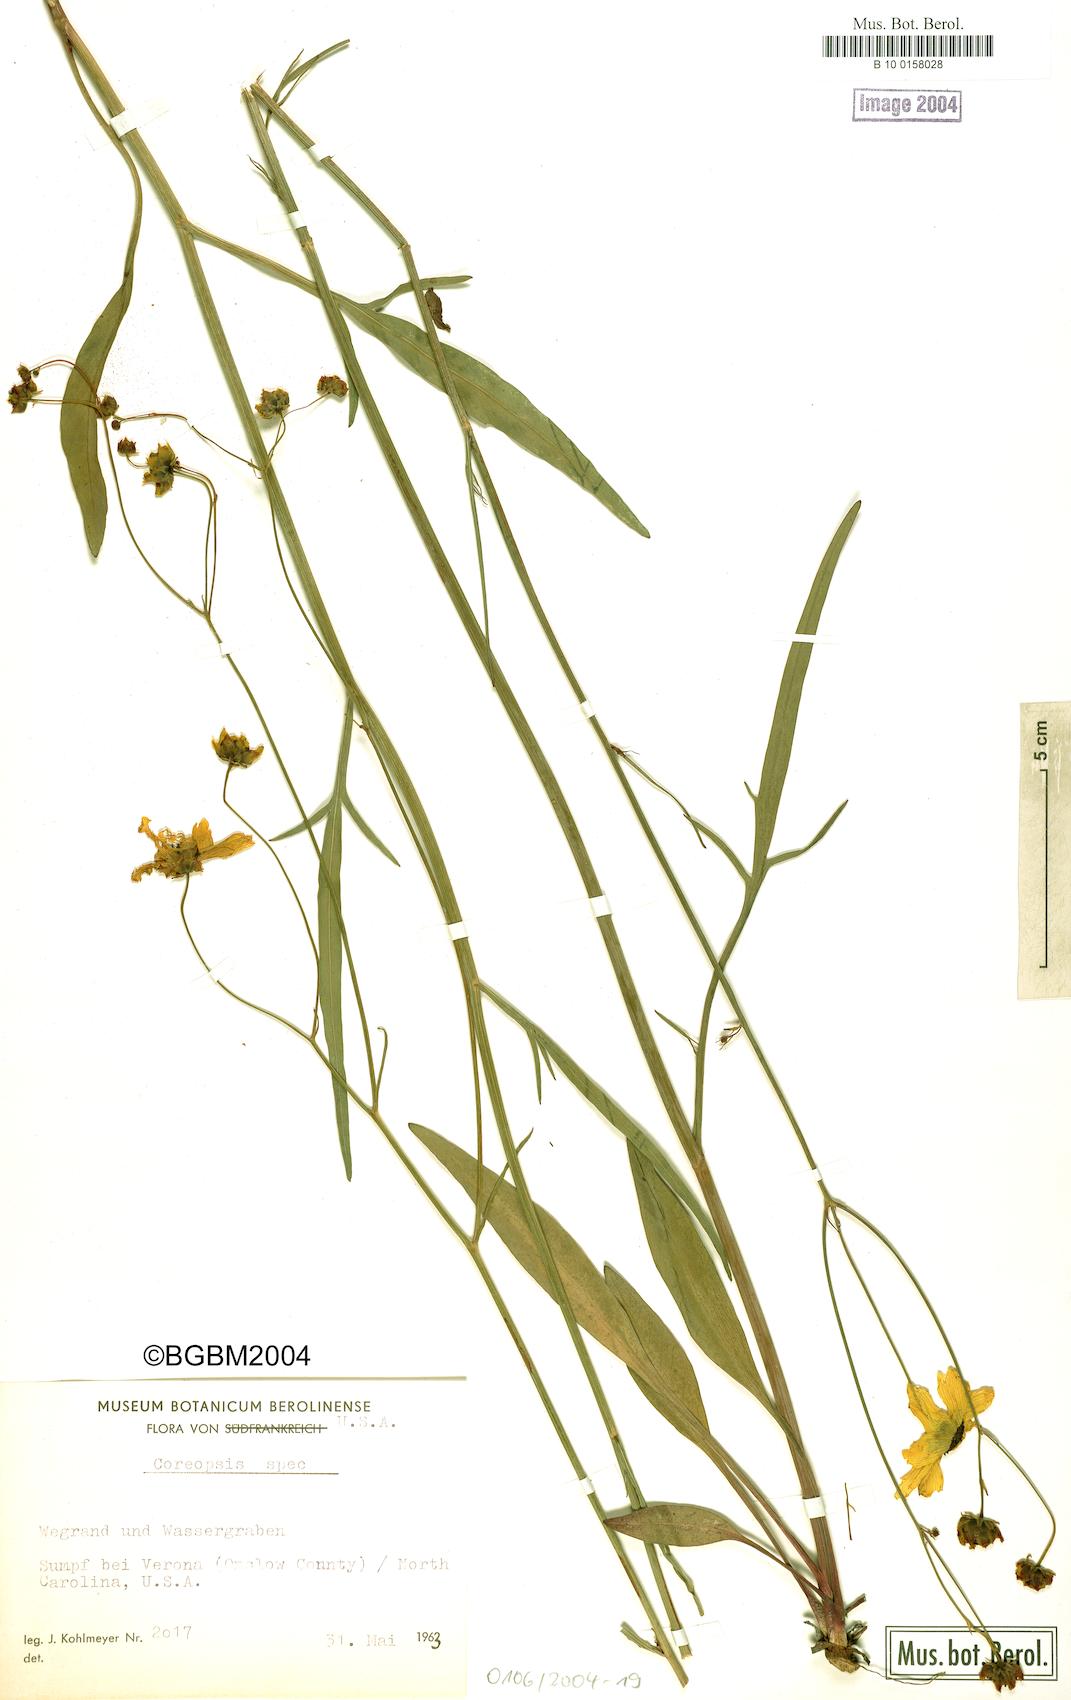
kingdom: Plantae
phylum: Tracheophyta
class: Magnoliopsida
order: Asterales
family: Asteraceae
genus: Coreopsis
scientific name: Coreopsis
